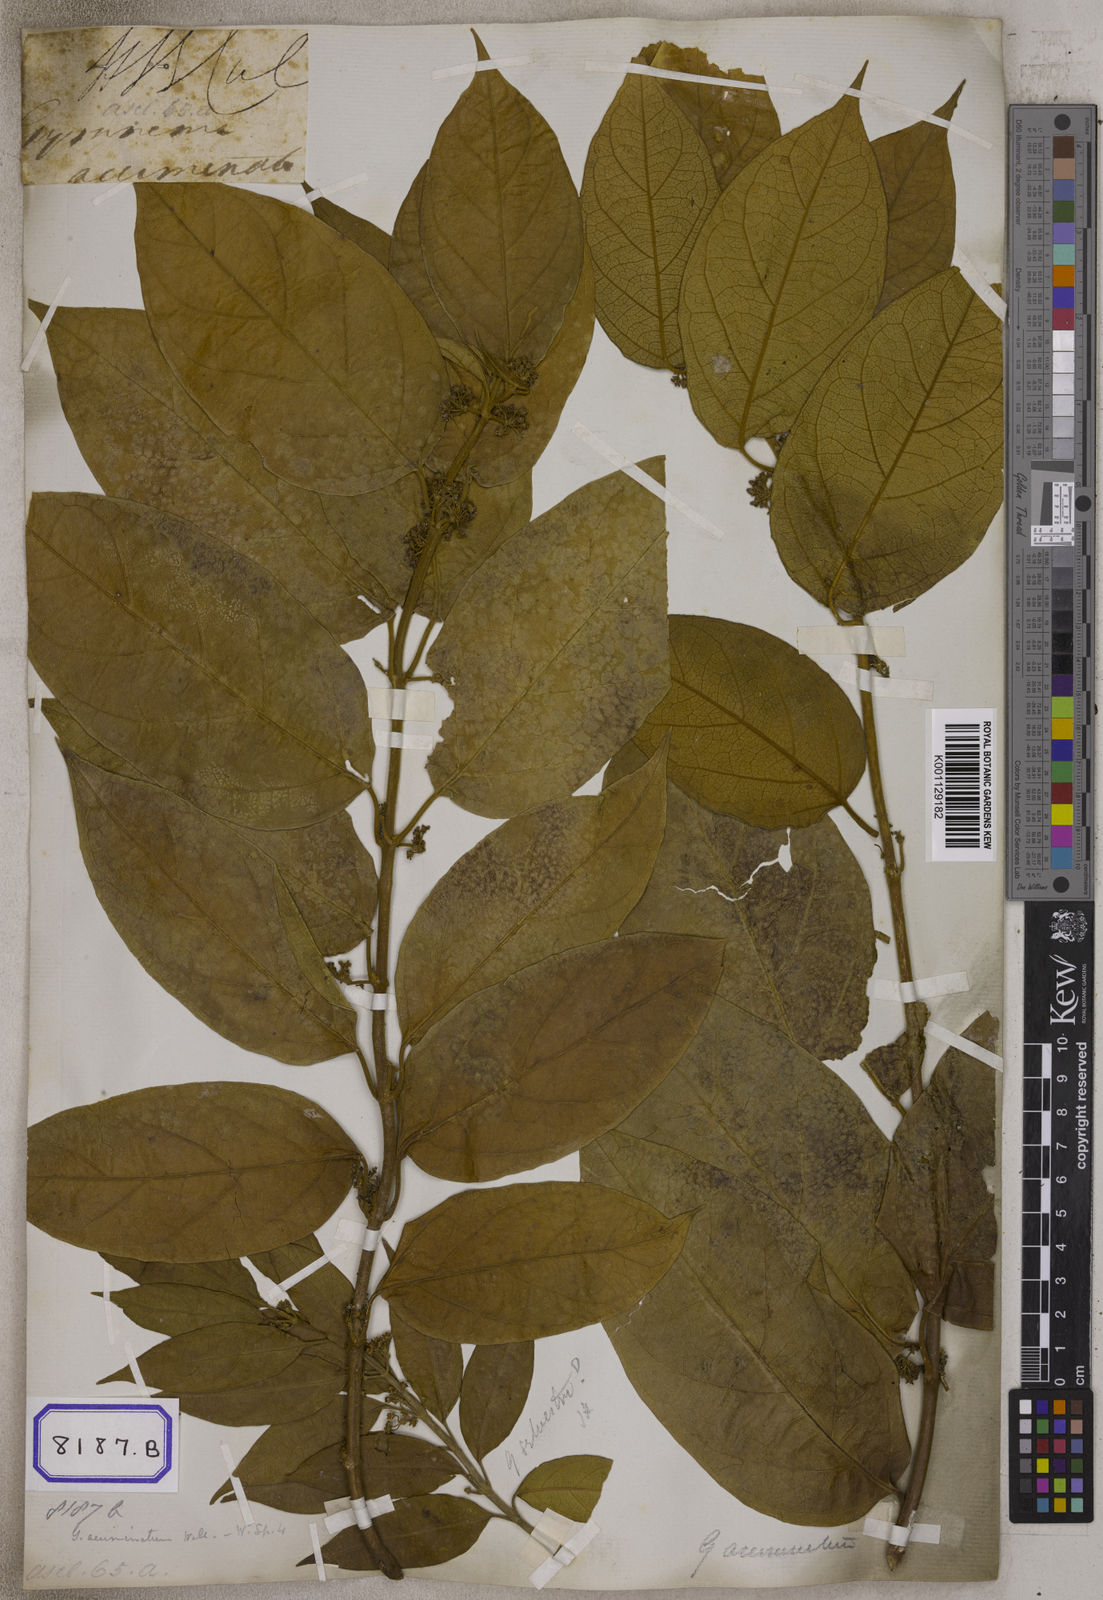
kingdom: Plantae
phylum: Tracheophyta
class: Magnoliopsida
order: Gentianales
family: Apocynaceae
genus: Gymnema
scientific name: Gymnema acuminatum
